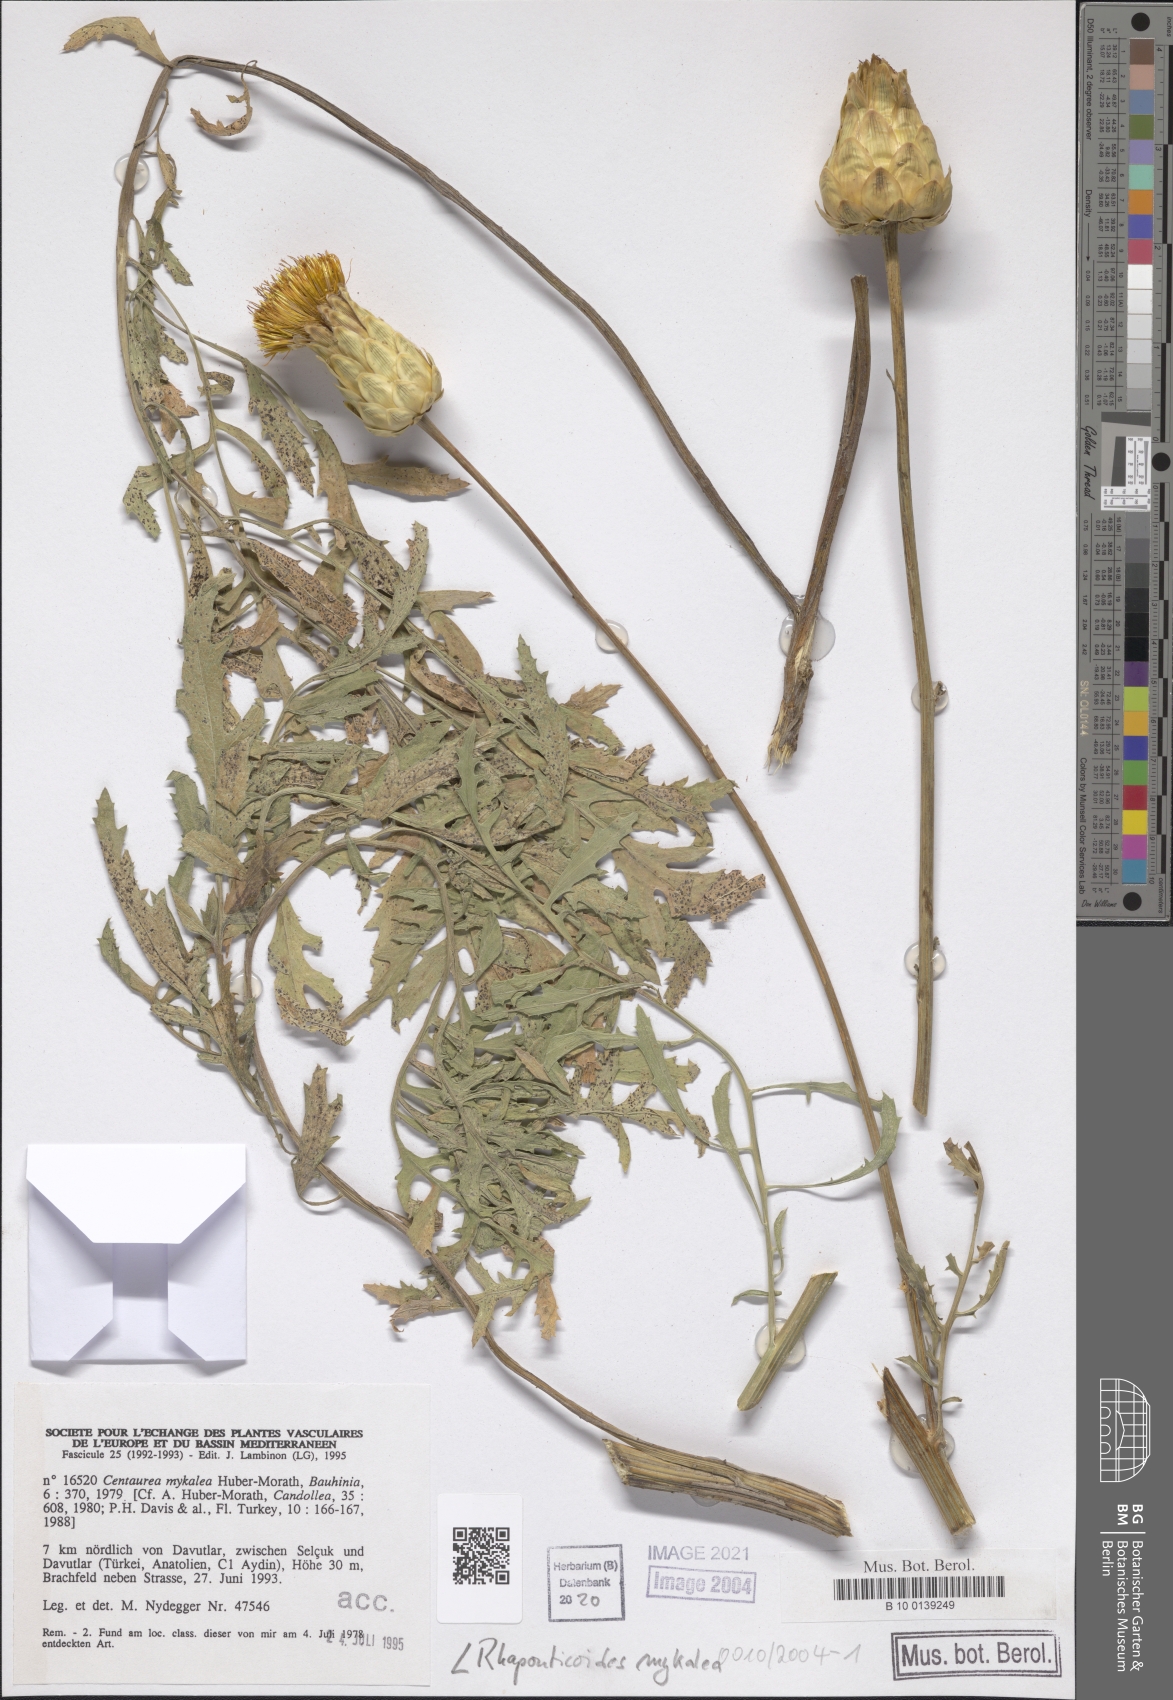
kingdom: Plantae
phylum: Tracheophyta
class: Magnoliopsida
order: Asterales
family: Asteraceae
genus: Rhaponticoides
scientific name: Rhaponticoides mykalea
